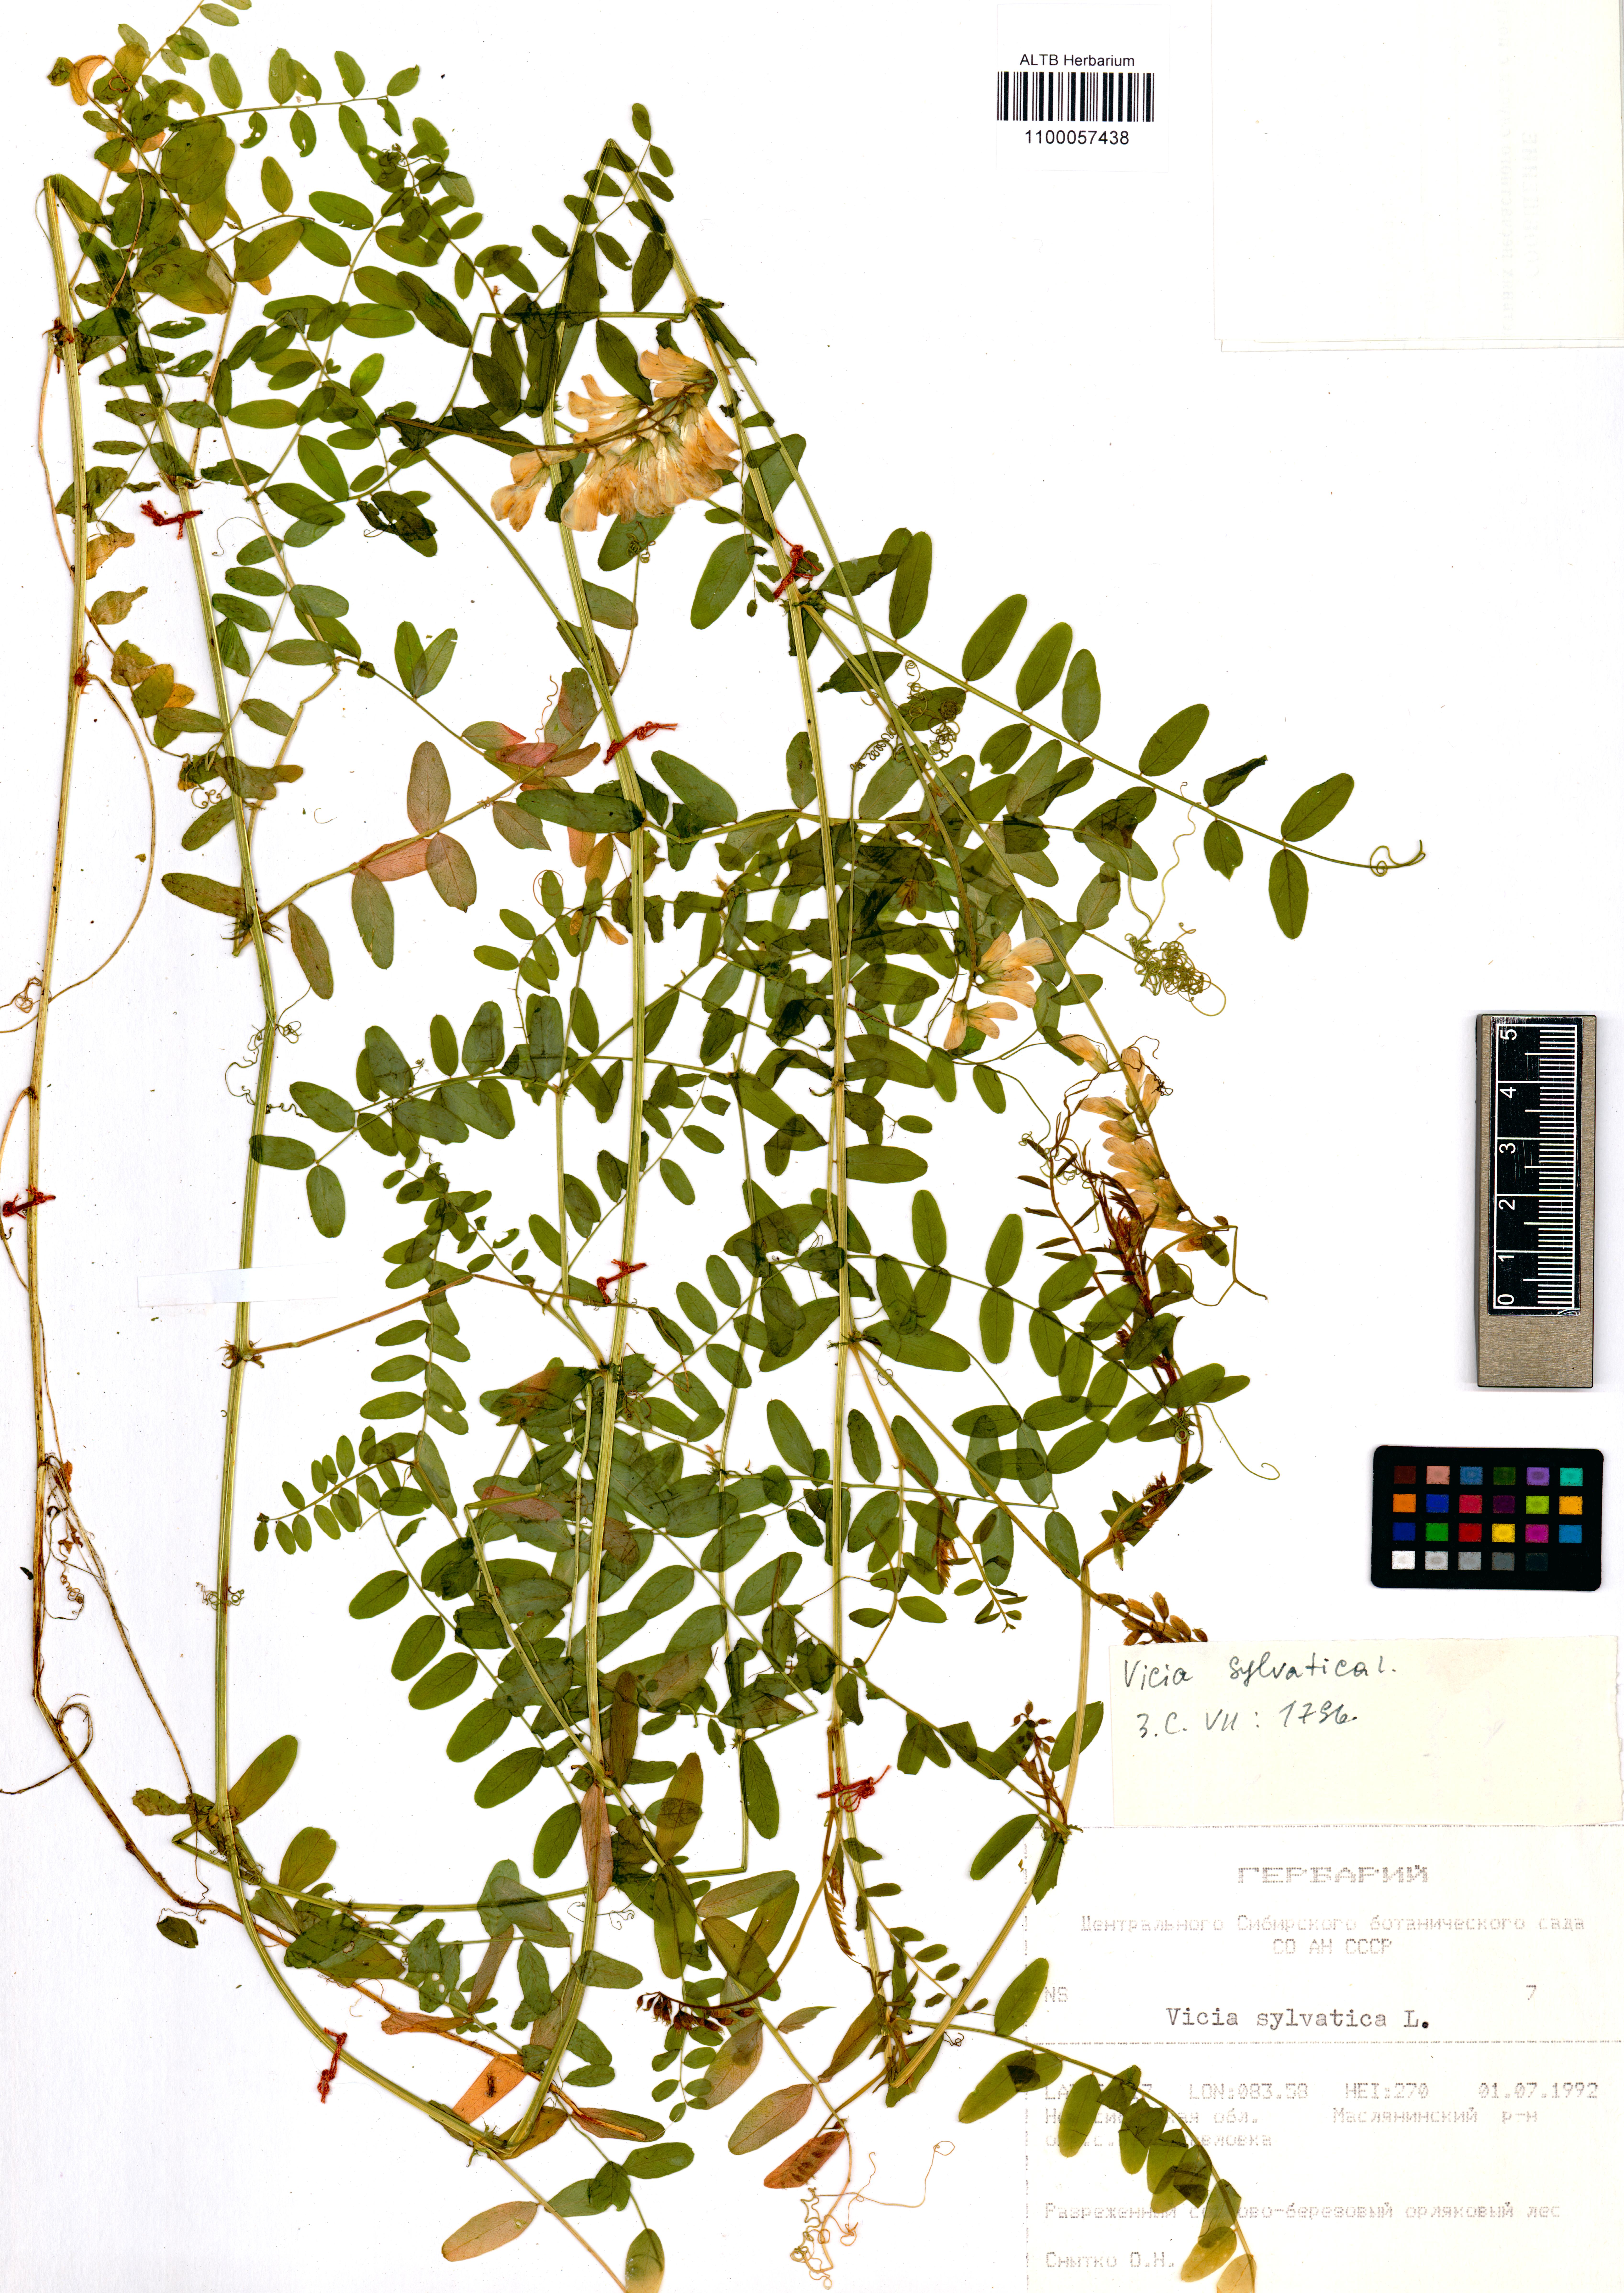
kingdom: Plantae
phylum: Tracheophyta
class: Magnoliopsida
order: Fabales
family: Fabaceae
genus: Vicia
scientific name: Vicia sylvatica
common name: Wood vetch
